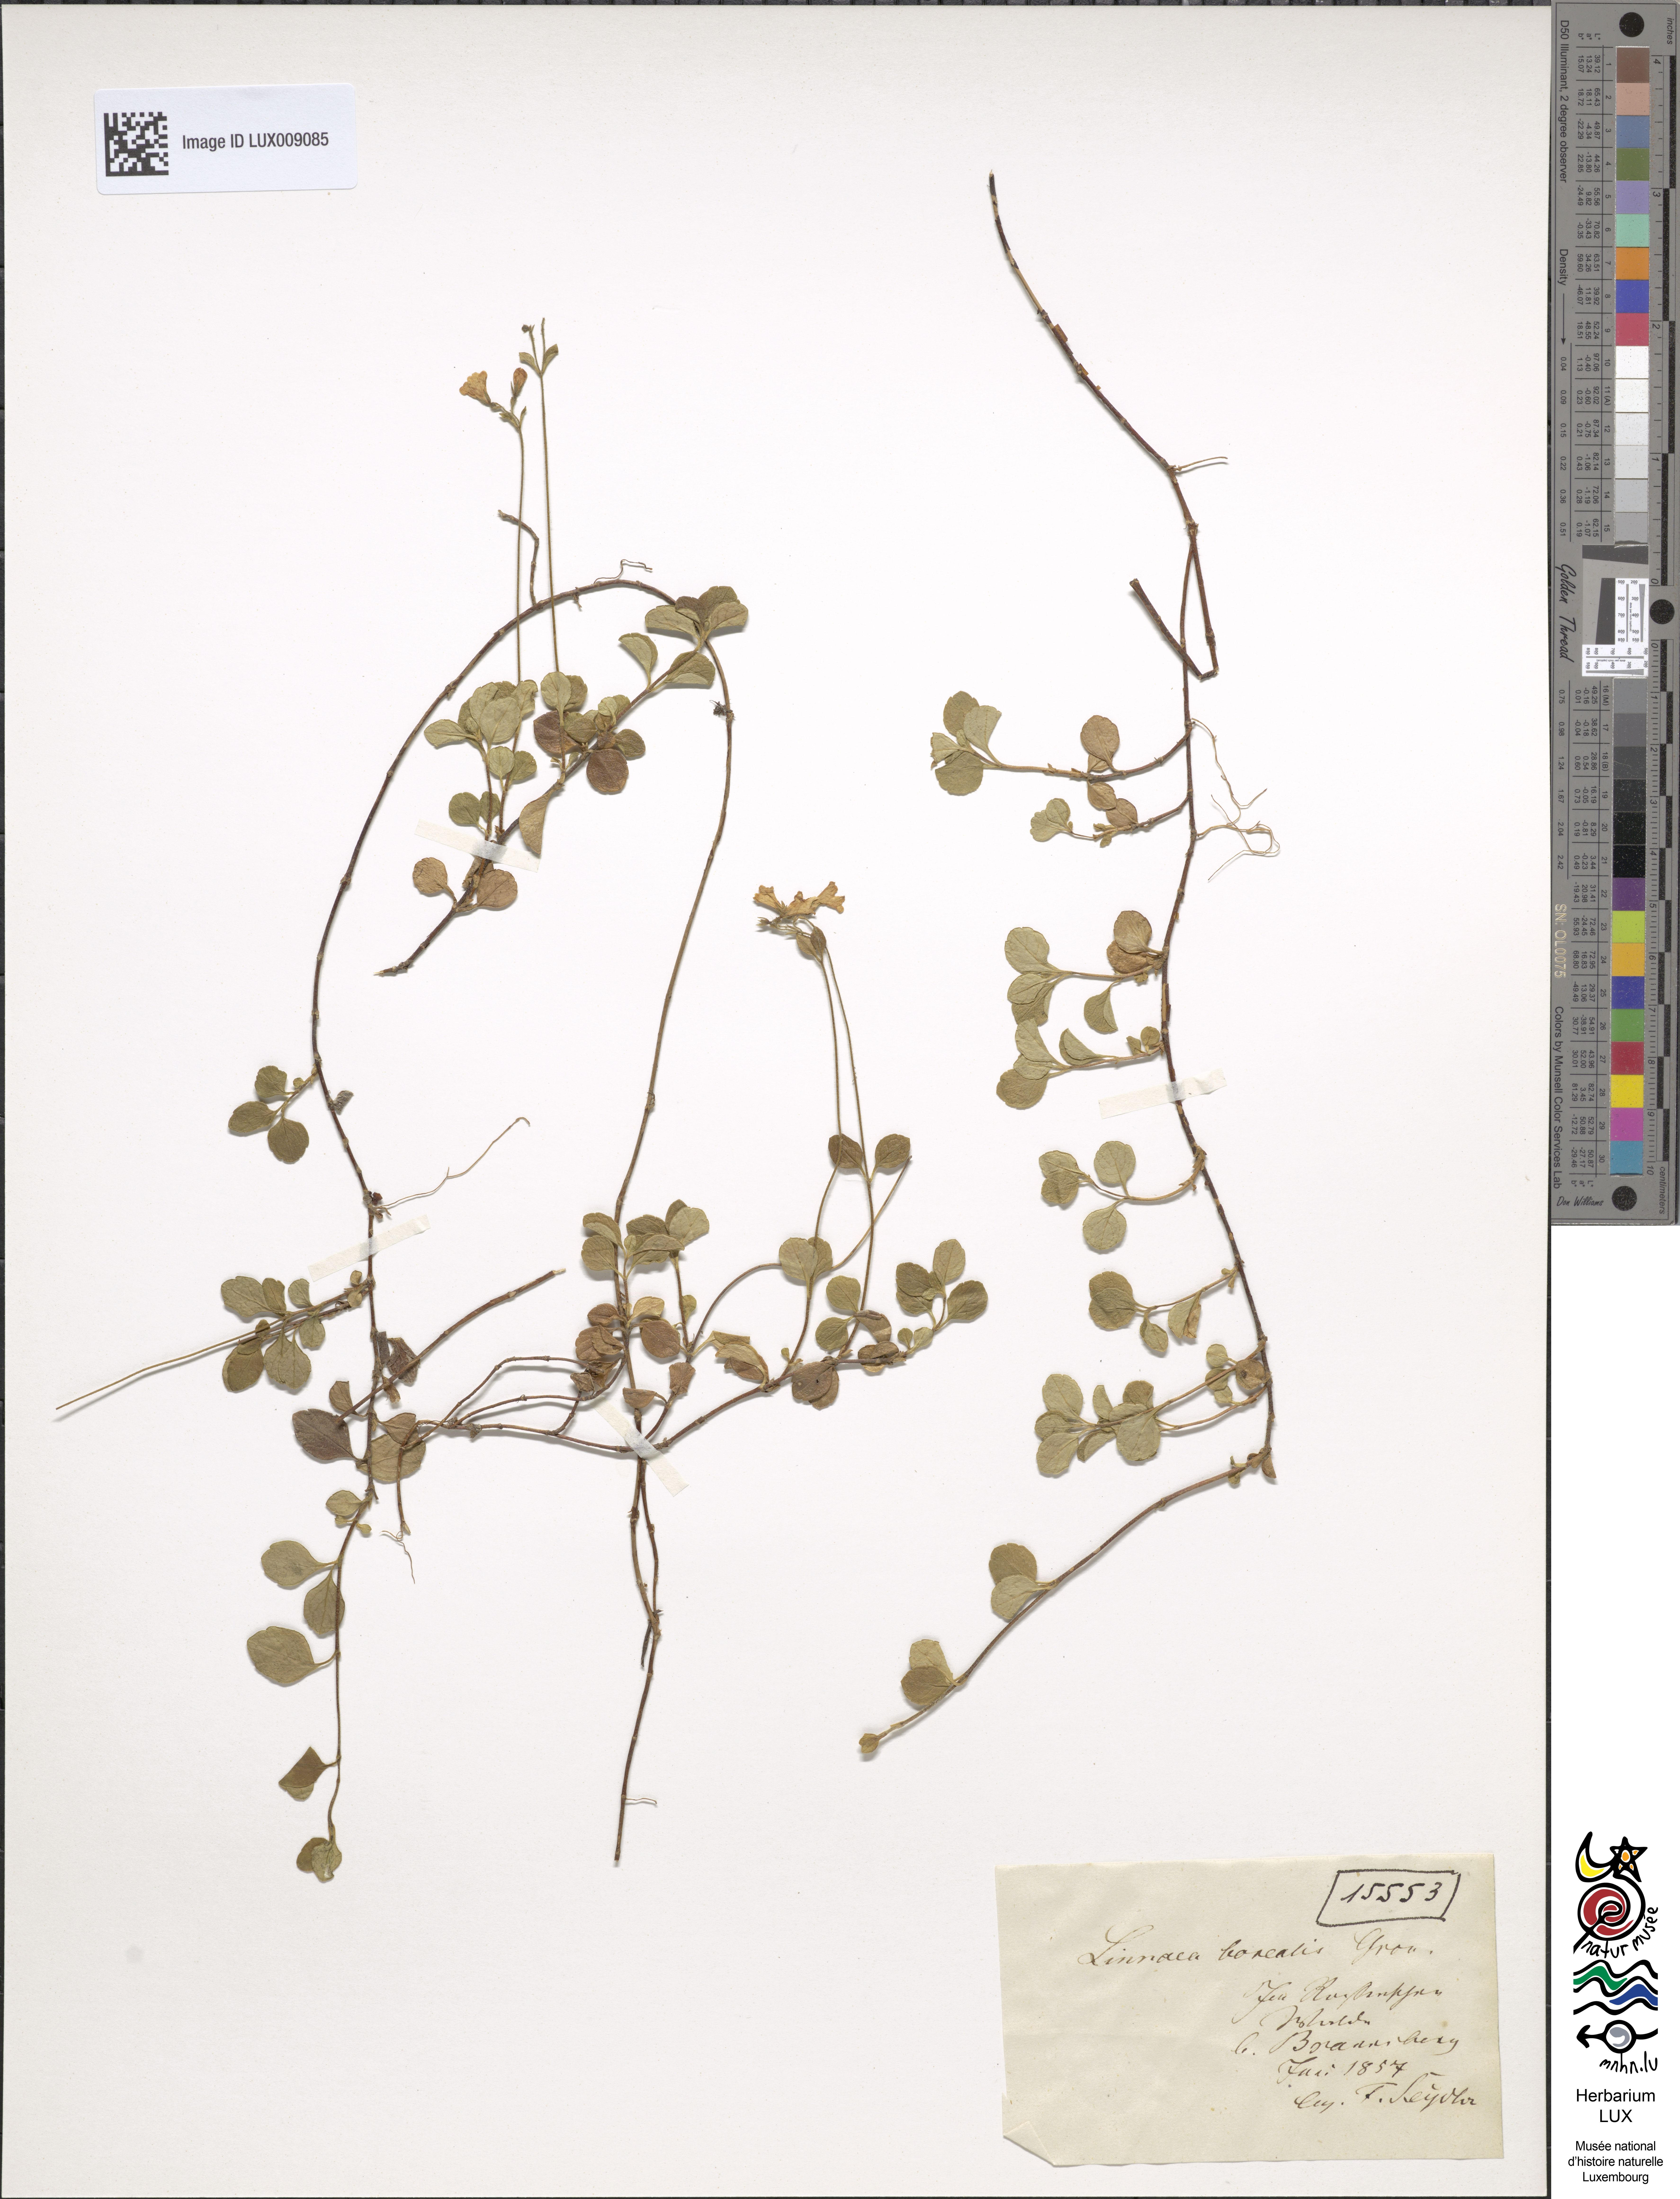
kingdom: Plantae
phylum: Tracheophyta
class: Magnoliopsida
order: Dipsacales
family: Caprifoliaceae
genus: Linnaea
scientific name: Linnaea borealis
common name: Twinflower
